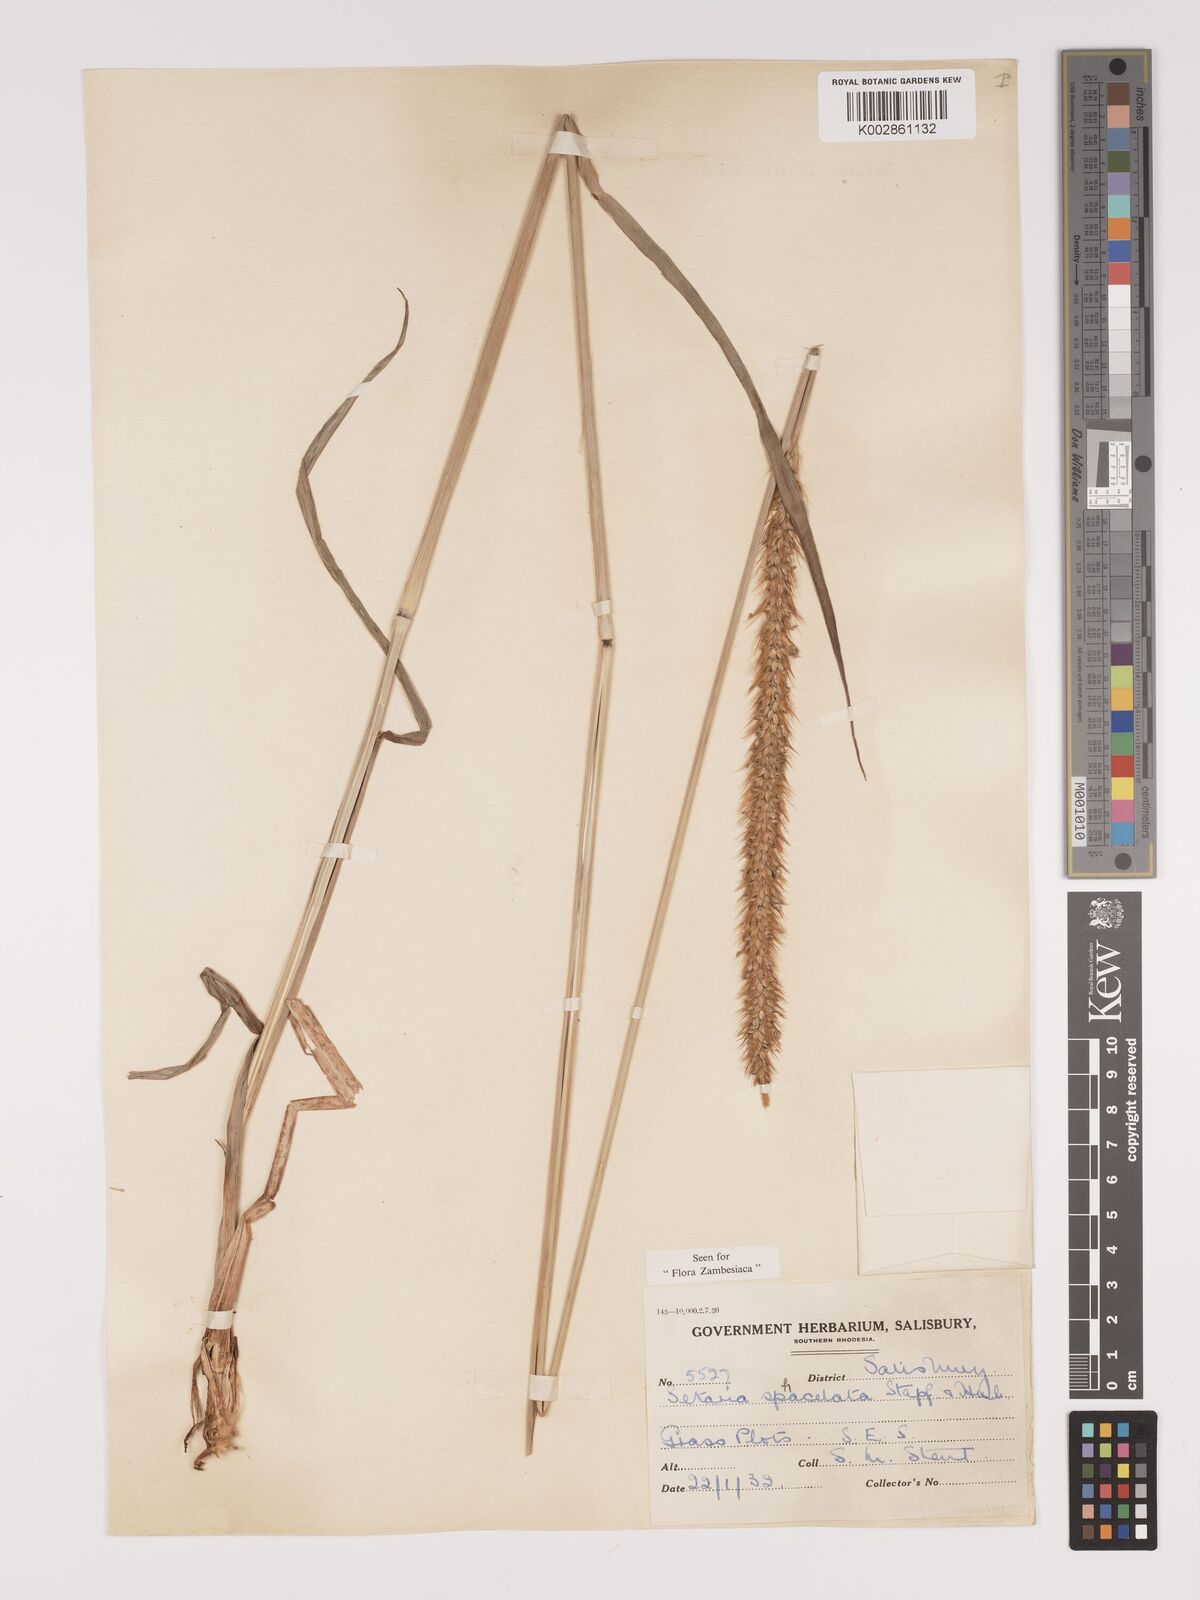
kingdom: Plantae
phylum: Tracheophyta
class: Liliopsida
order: Poales
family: Poaceae
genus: Setaria
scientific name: Setaria sphacelata
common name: African bristlegrass
